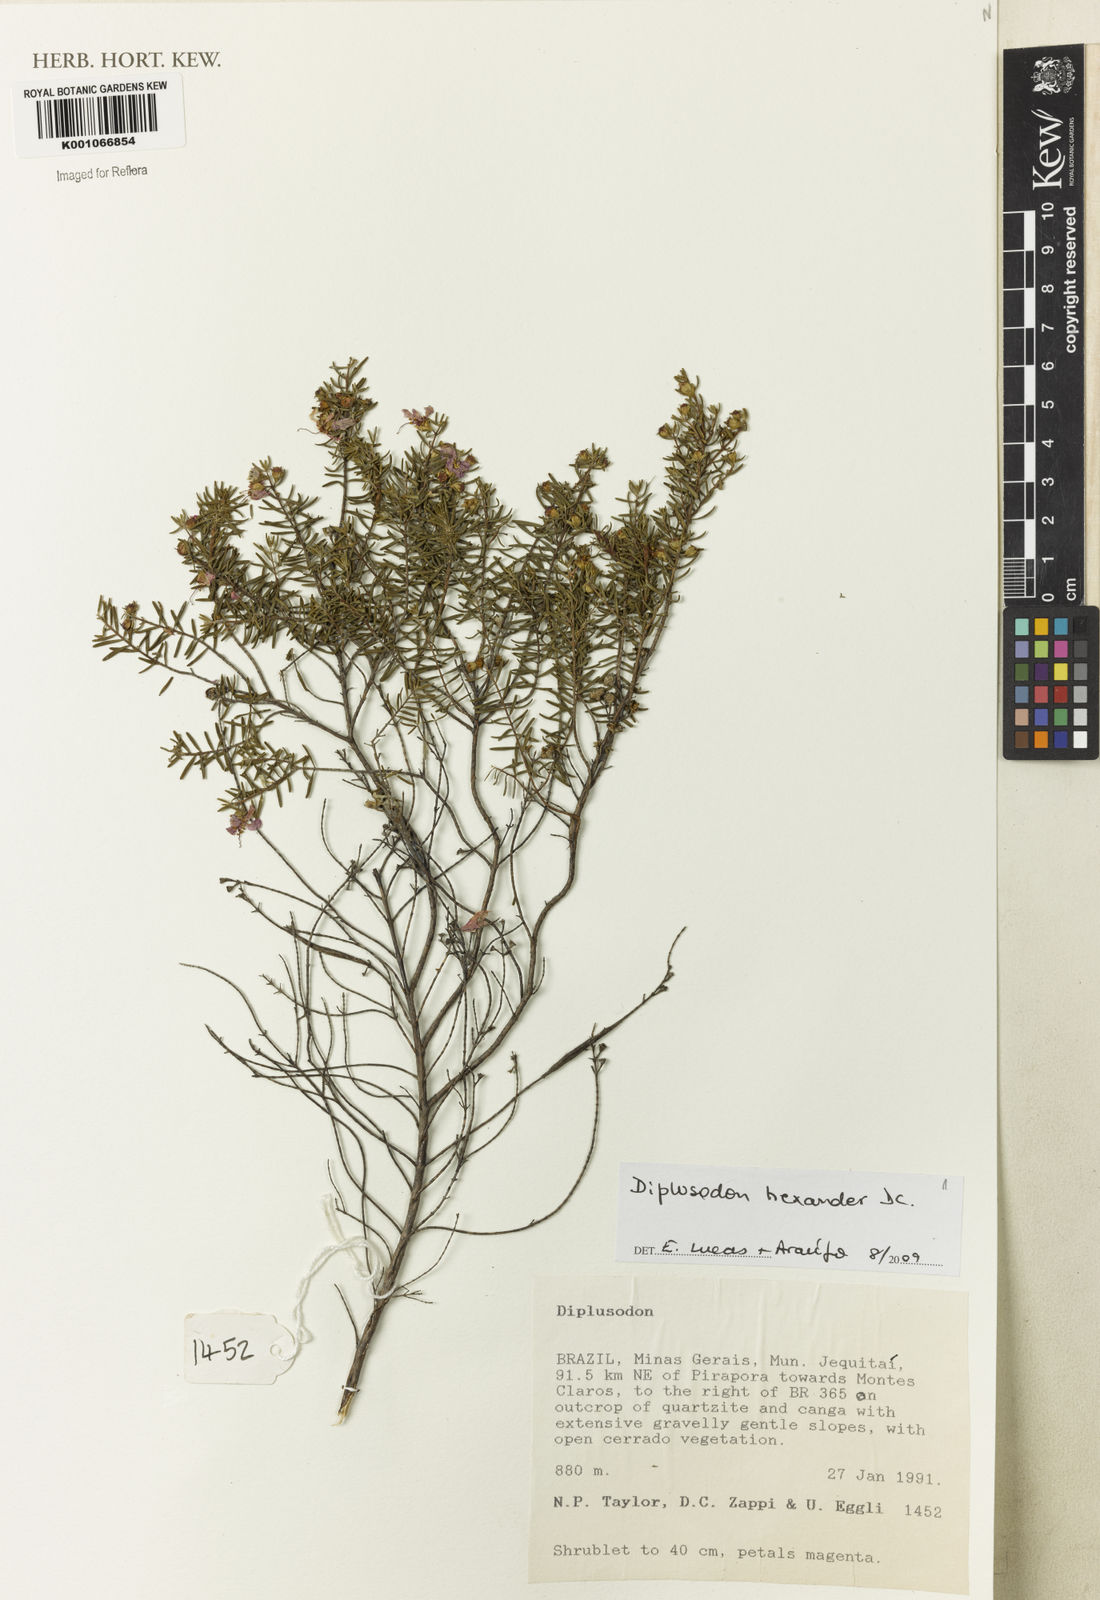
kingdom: Plantae
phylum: Tracheophyta
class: Magnoliopsida
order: Myrtales
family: Lythraceae
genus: Diplusodon
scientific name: Diplusodon hexander
